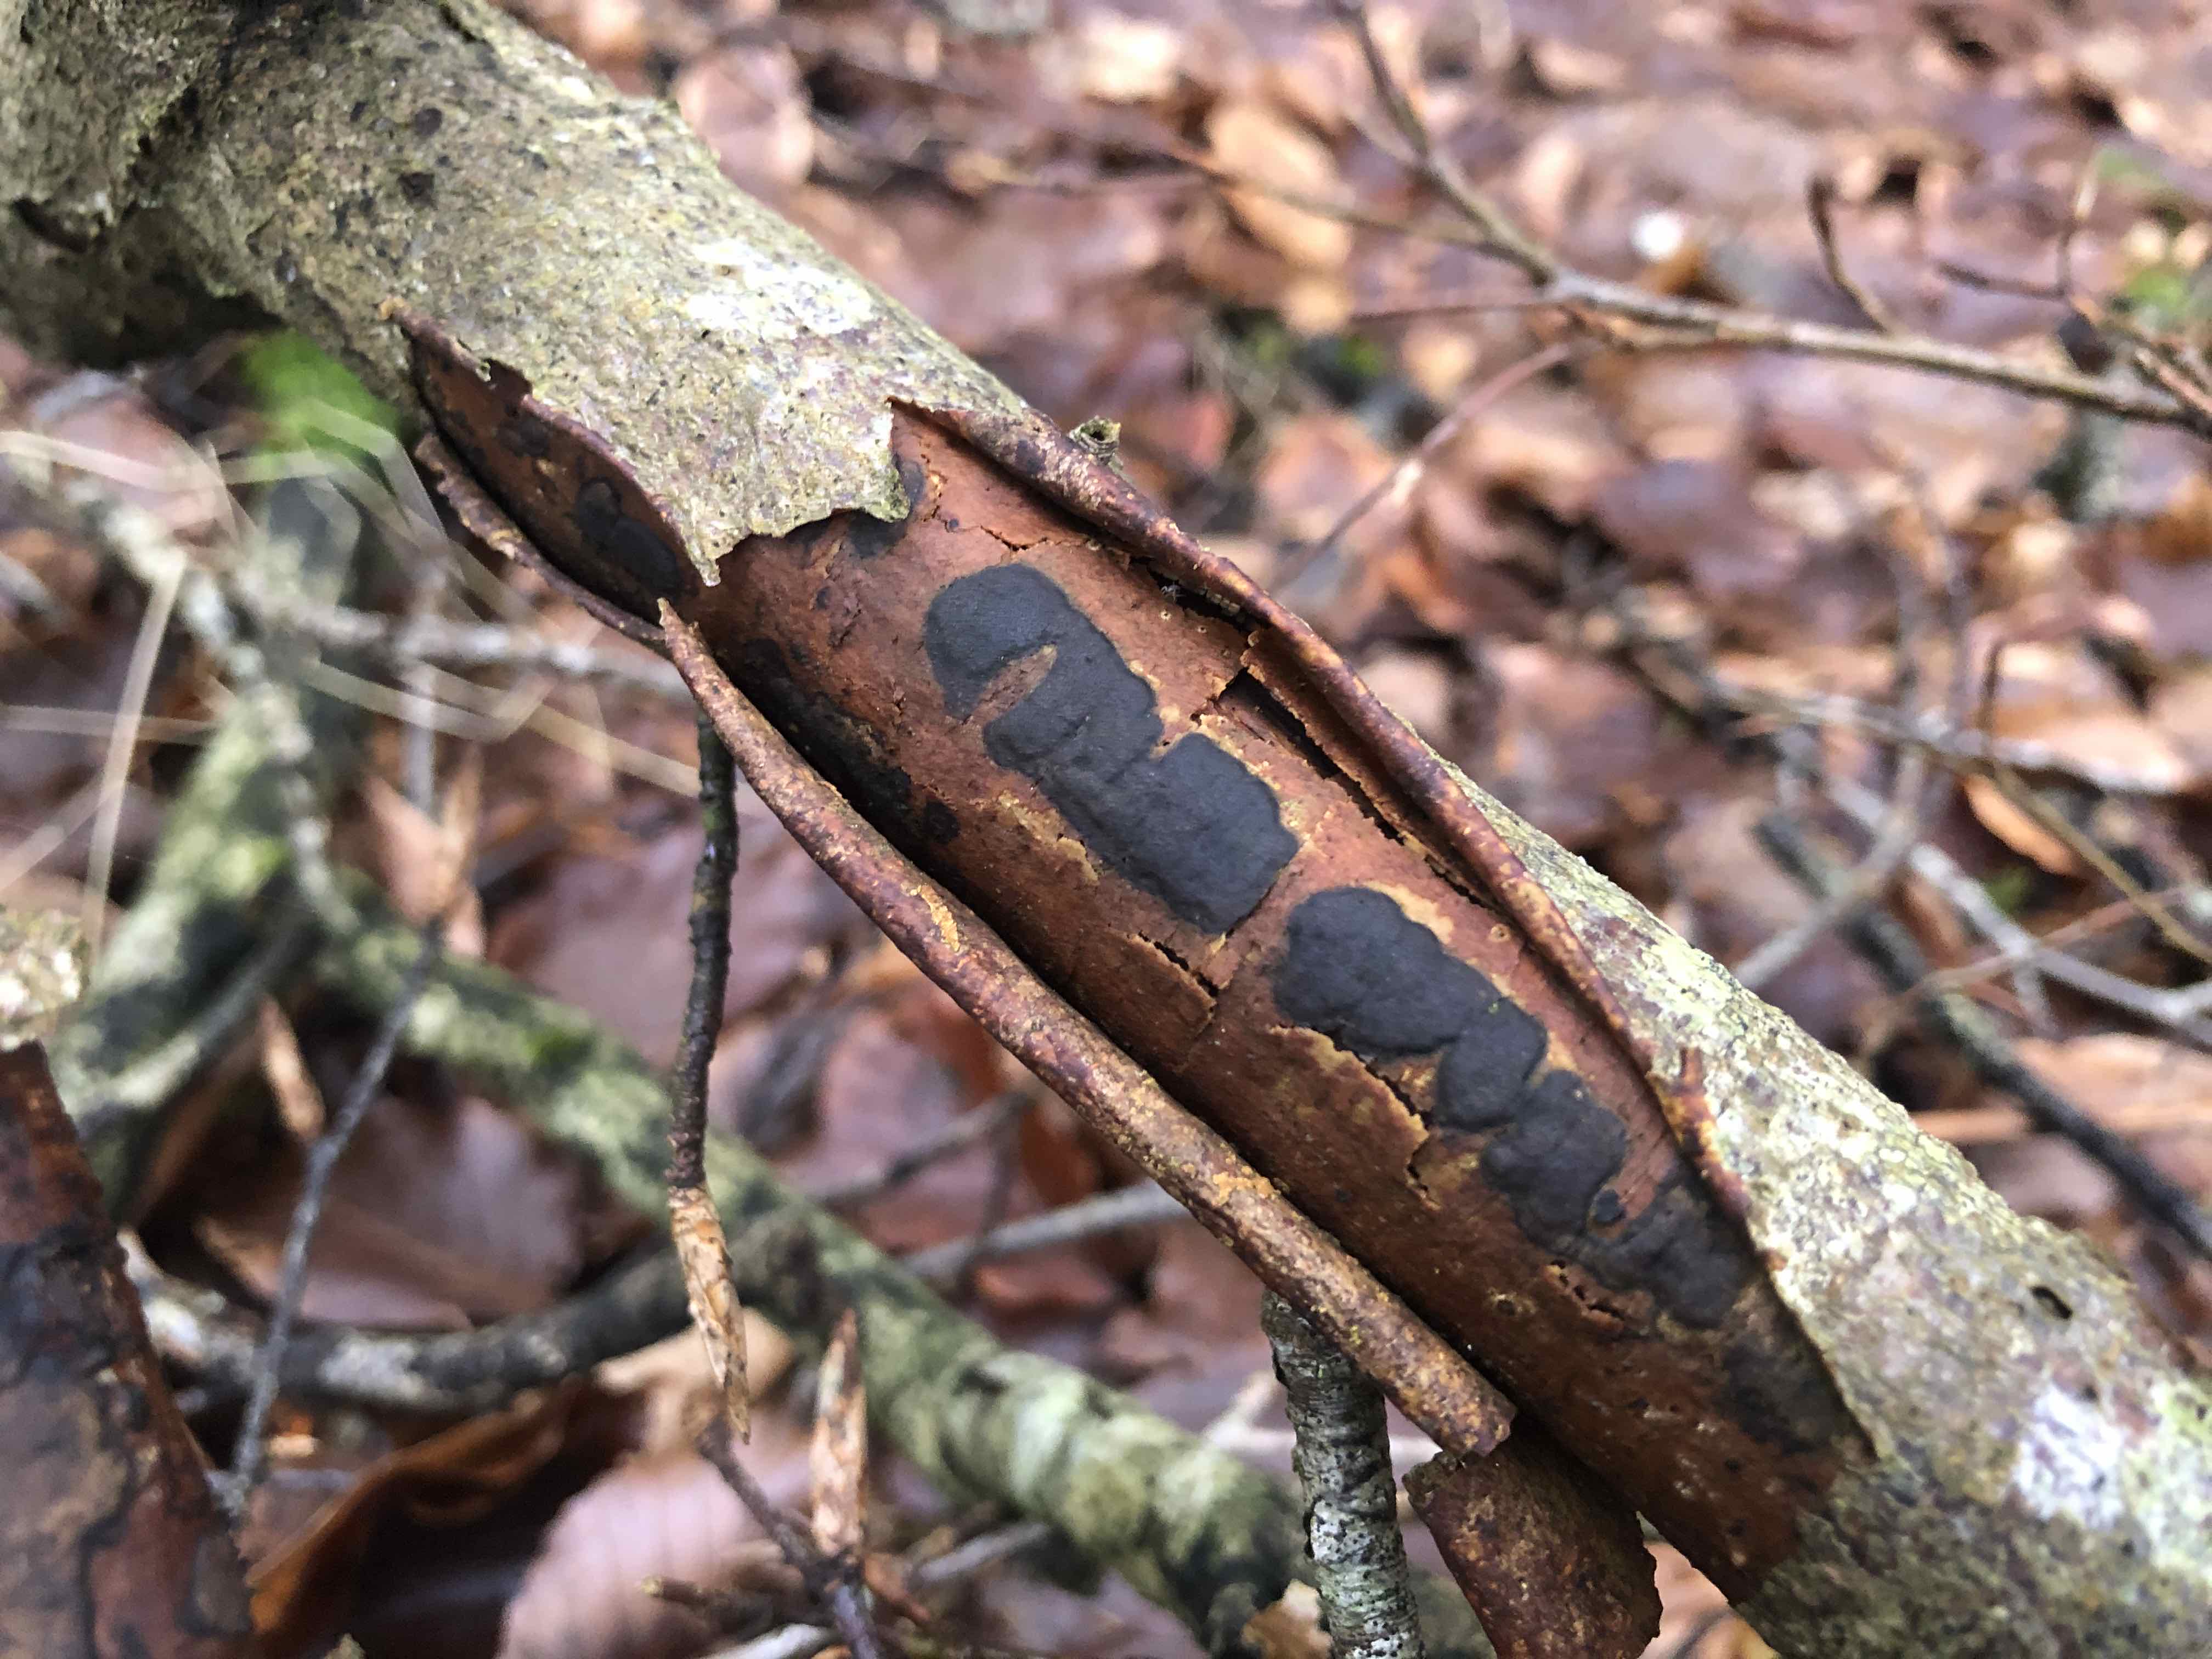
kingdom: Fungi
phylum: Ascomycota
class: Sordariomycetes
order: Xylariales
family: Diatrypaceae
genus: Diatrype
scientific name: Diatrype decorticata
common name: barksprænger-kulskorpe
